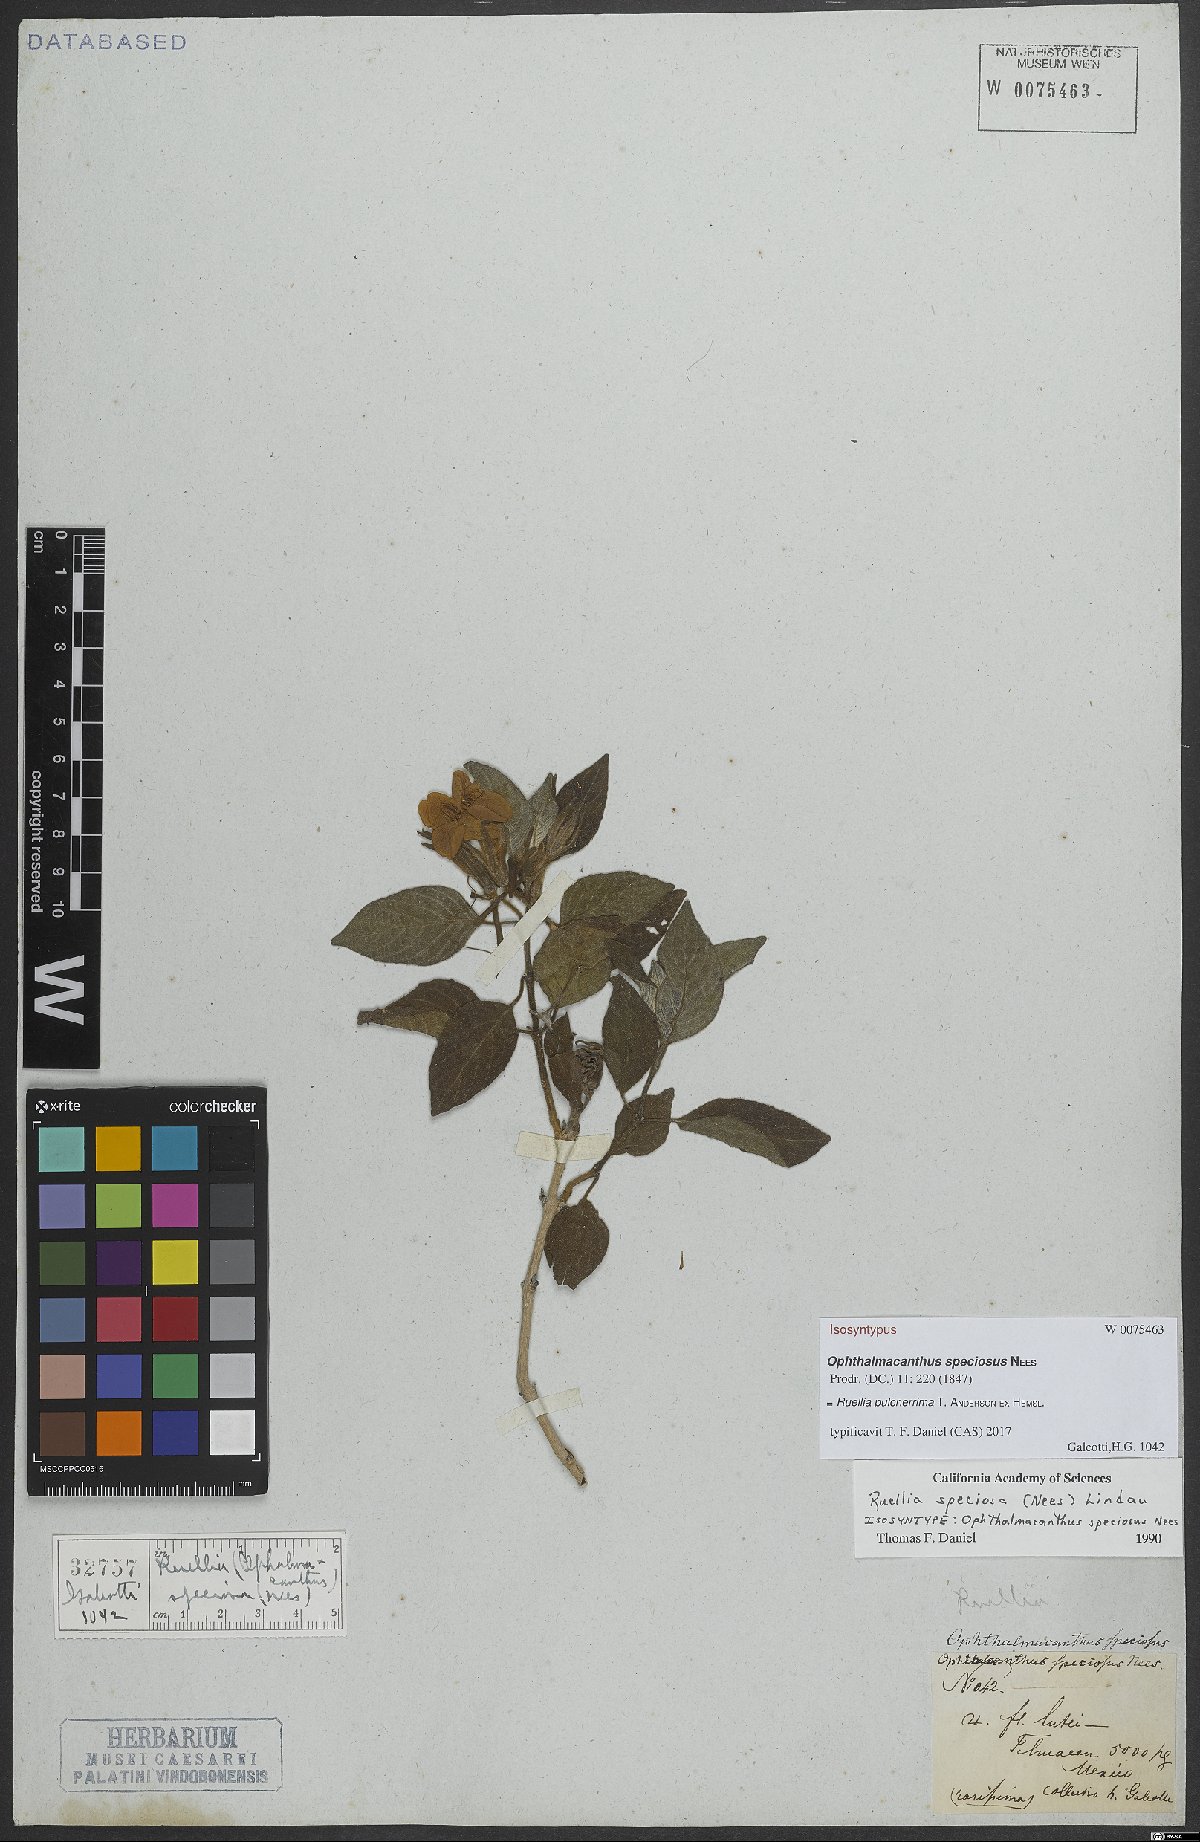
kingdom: Plantae
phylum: Tracheophyta
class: Magnoliopsida
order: Lamiales
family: Acanthaceae
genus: Ruellia
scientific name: Ruellia pulcherrima
